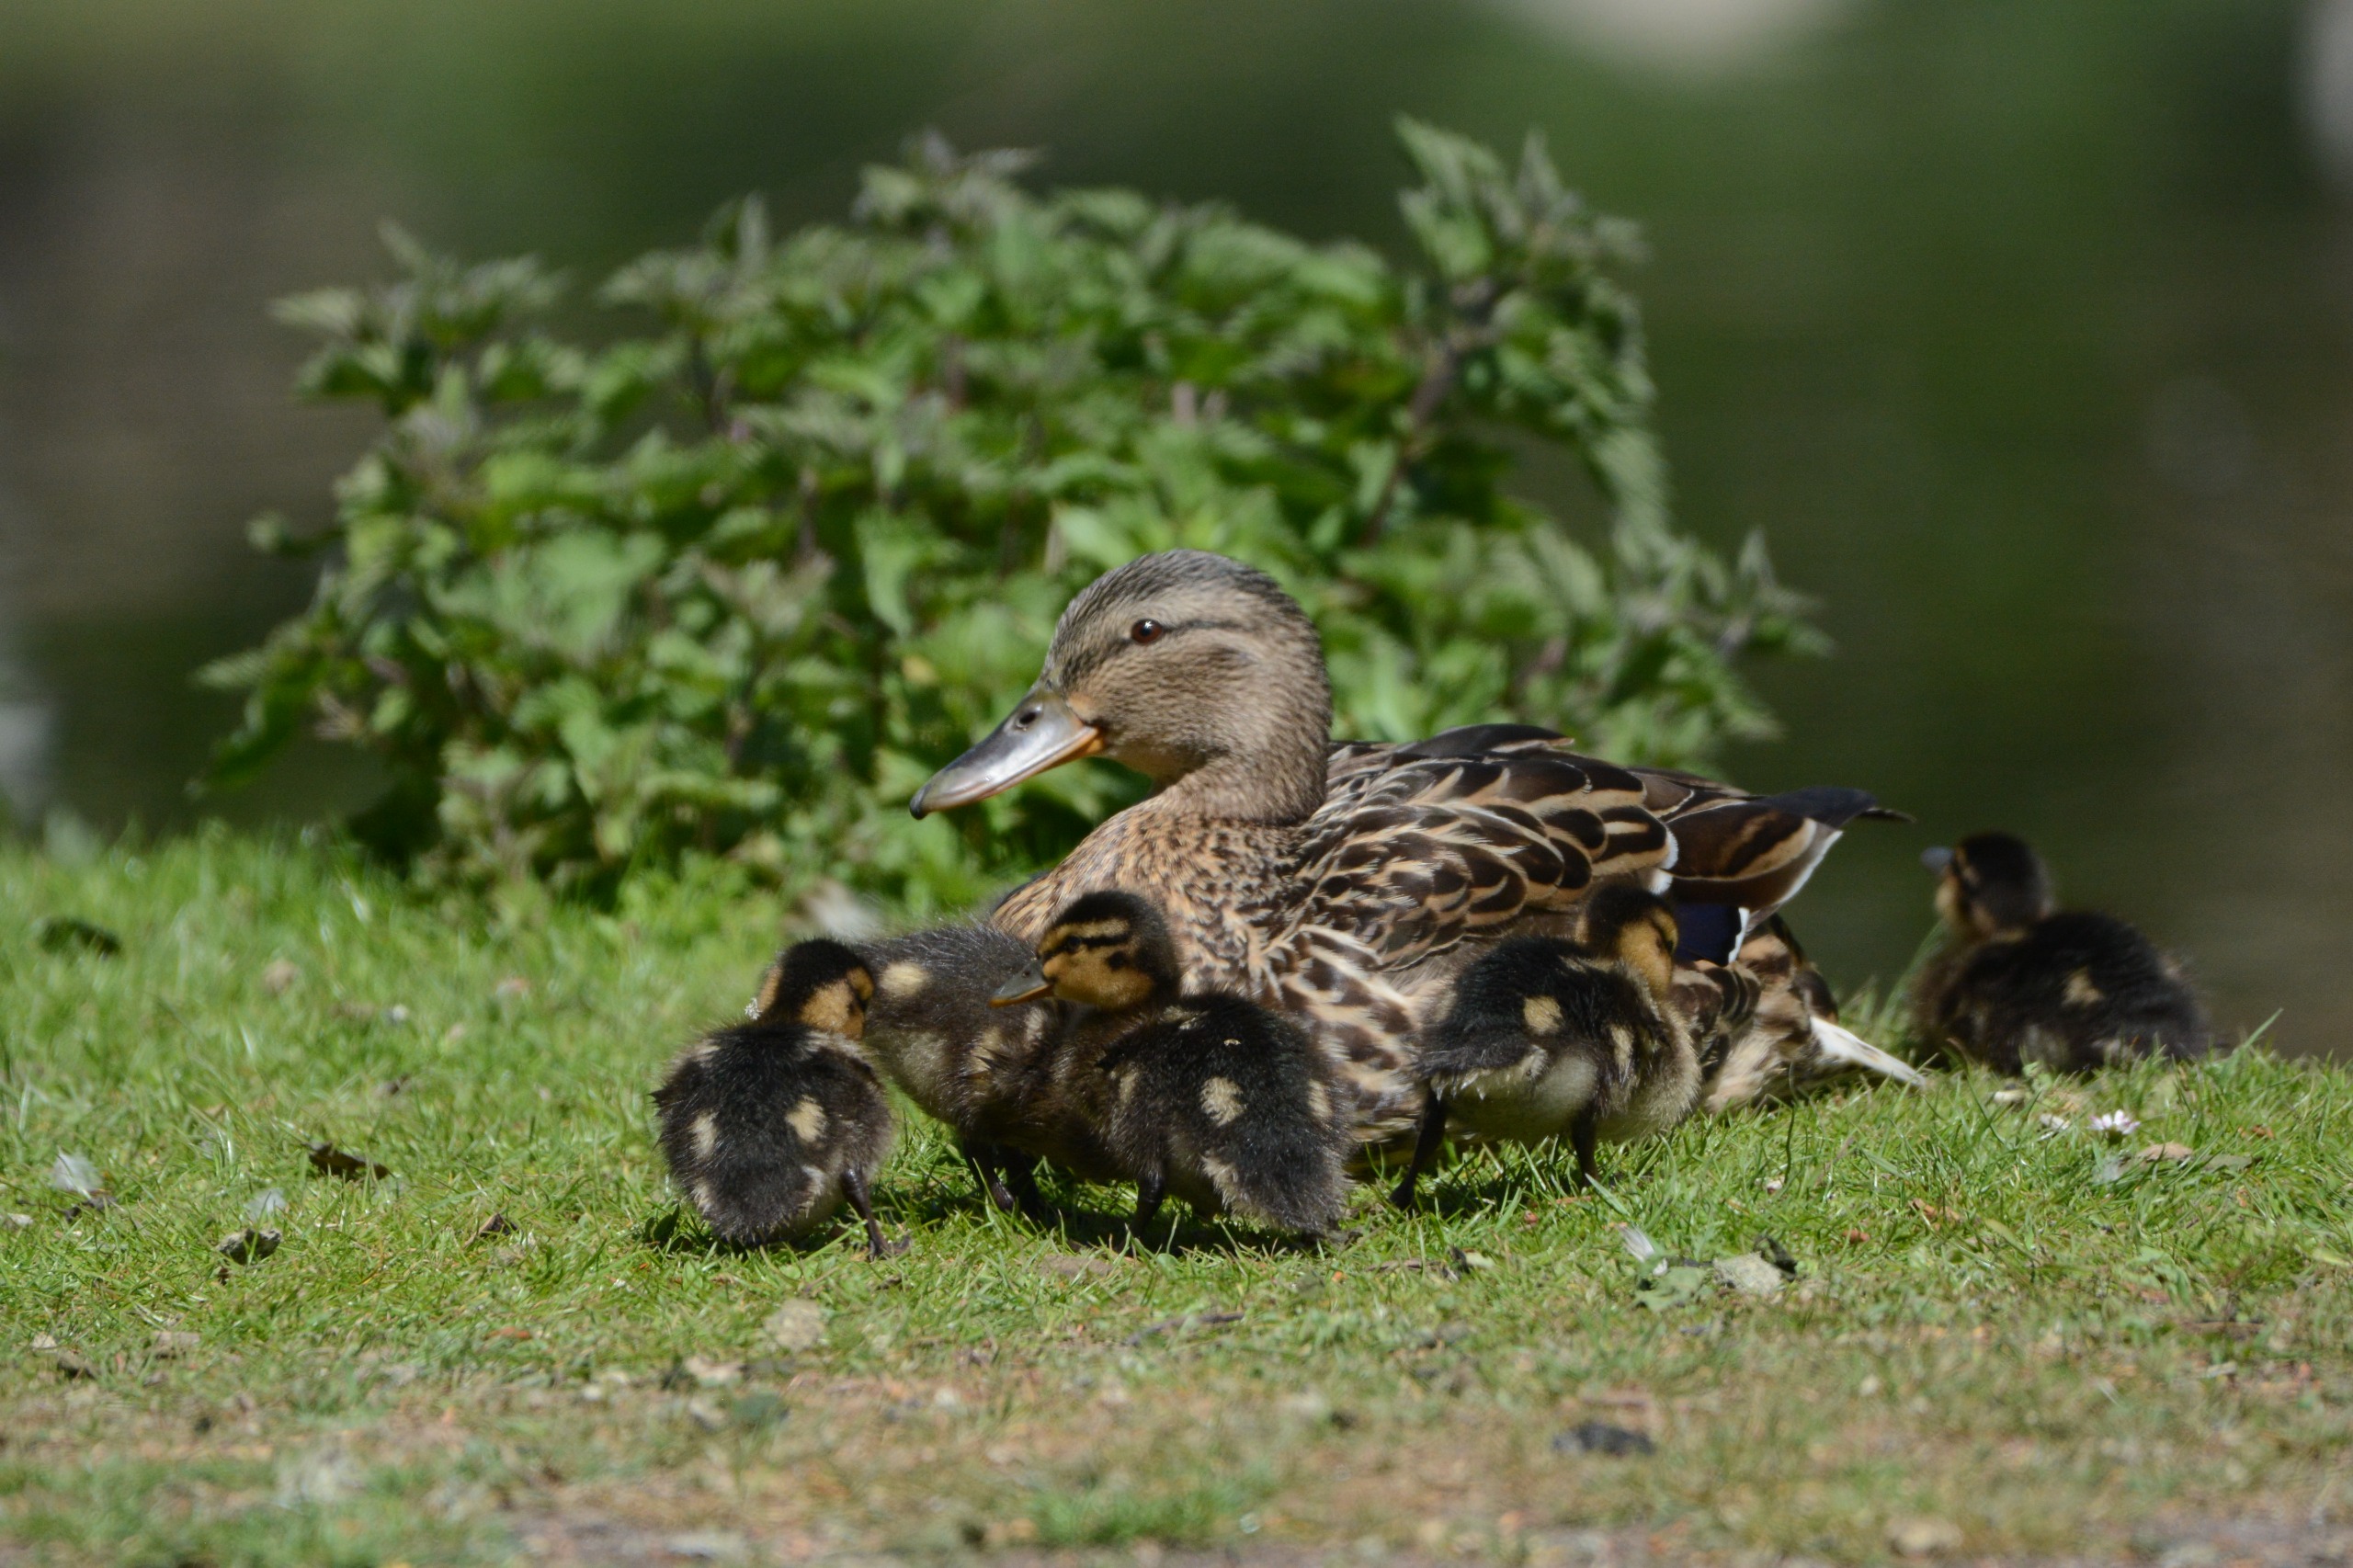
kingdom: Animalia
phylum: Chordata
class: Aves
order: Anseriformes
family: Anatidae
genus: Anas
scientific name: Anas platyrhynchos
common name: Gråand
